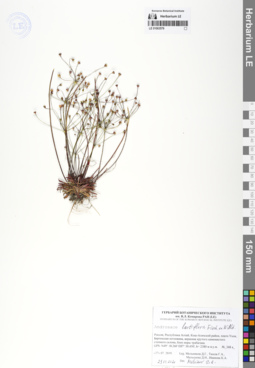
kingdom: Plantae
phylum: Tracheophyta
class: Magnoliopsida
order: Ericales
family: Primulaceae
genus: Androsace
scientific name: Androsace lactiflora
